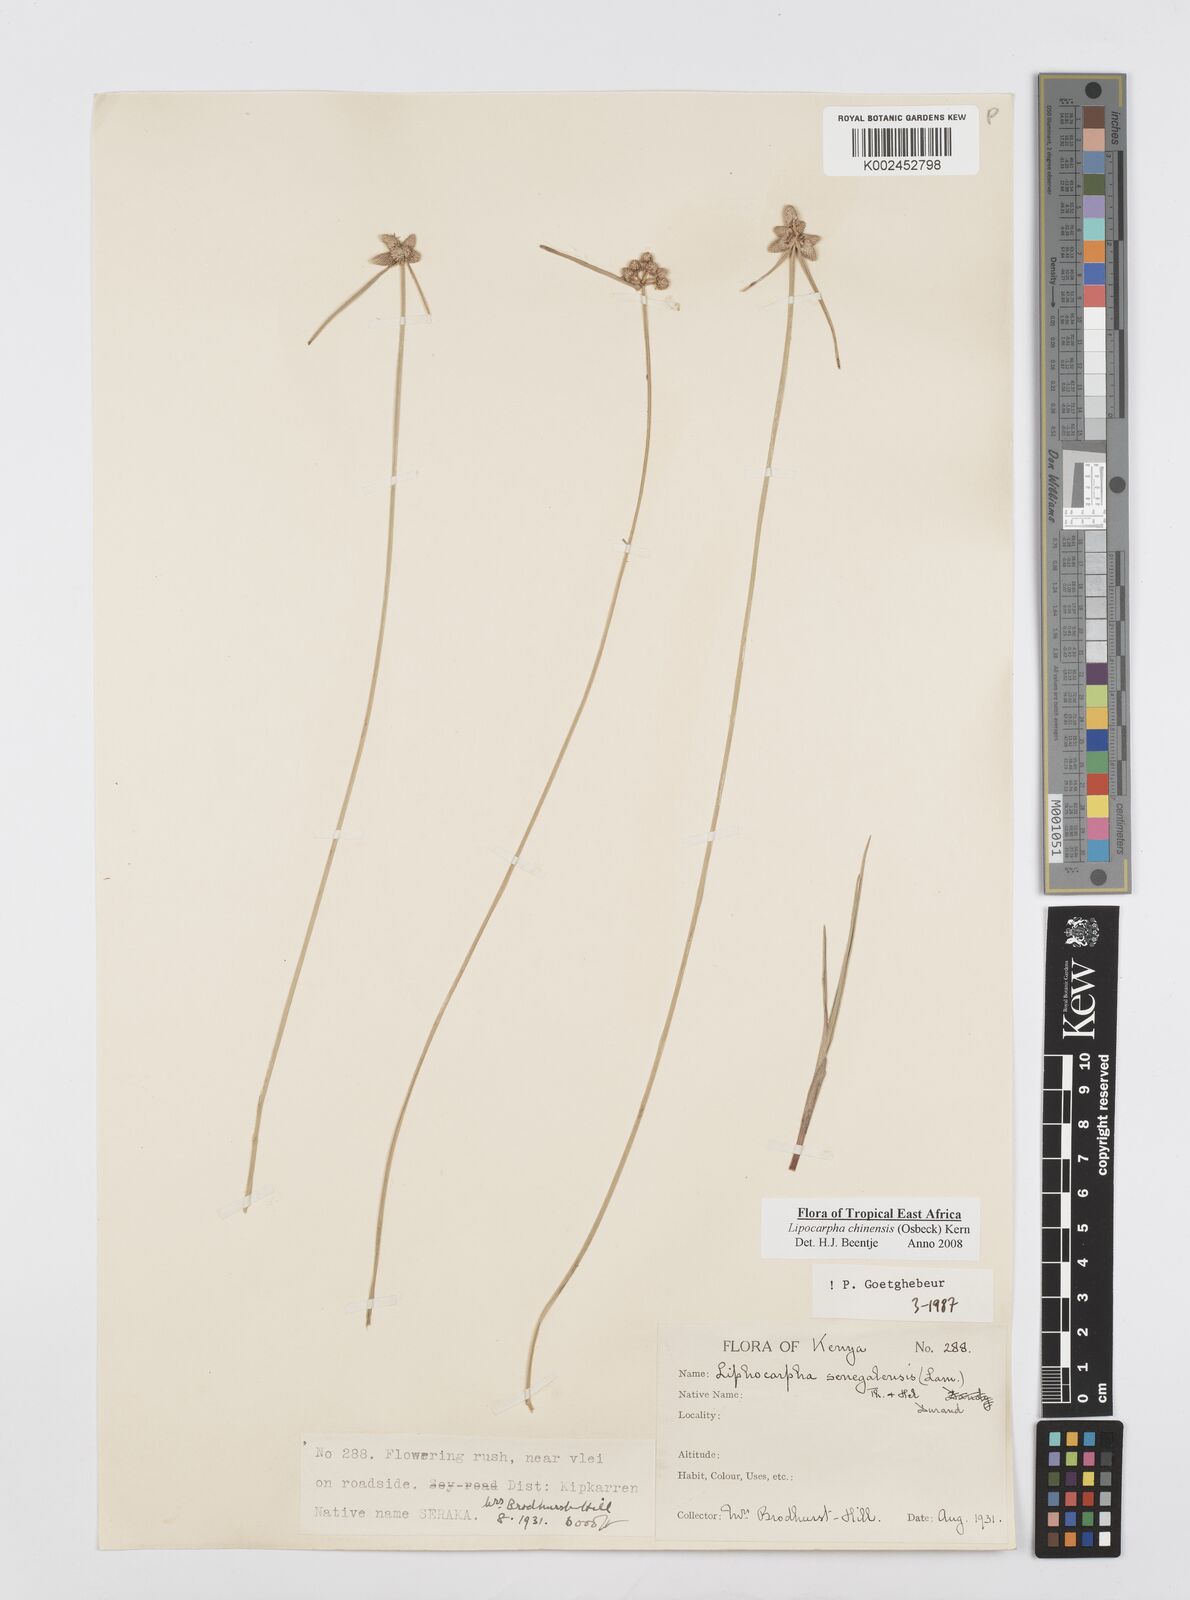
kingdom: Plantae
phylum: Tracheophyta
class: Liliopsida
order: Poales
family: Cyperaceae
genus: Cyperus
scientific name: Cyperus albescens
